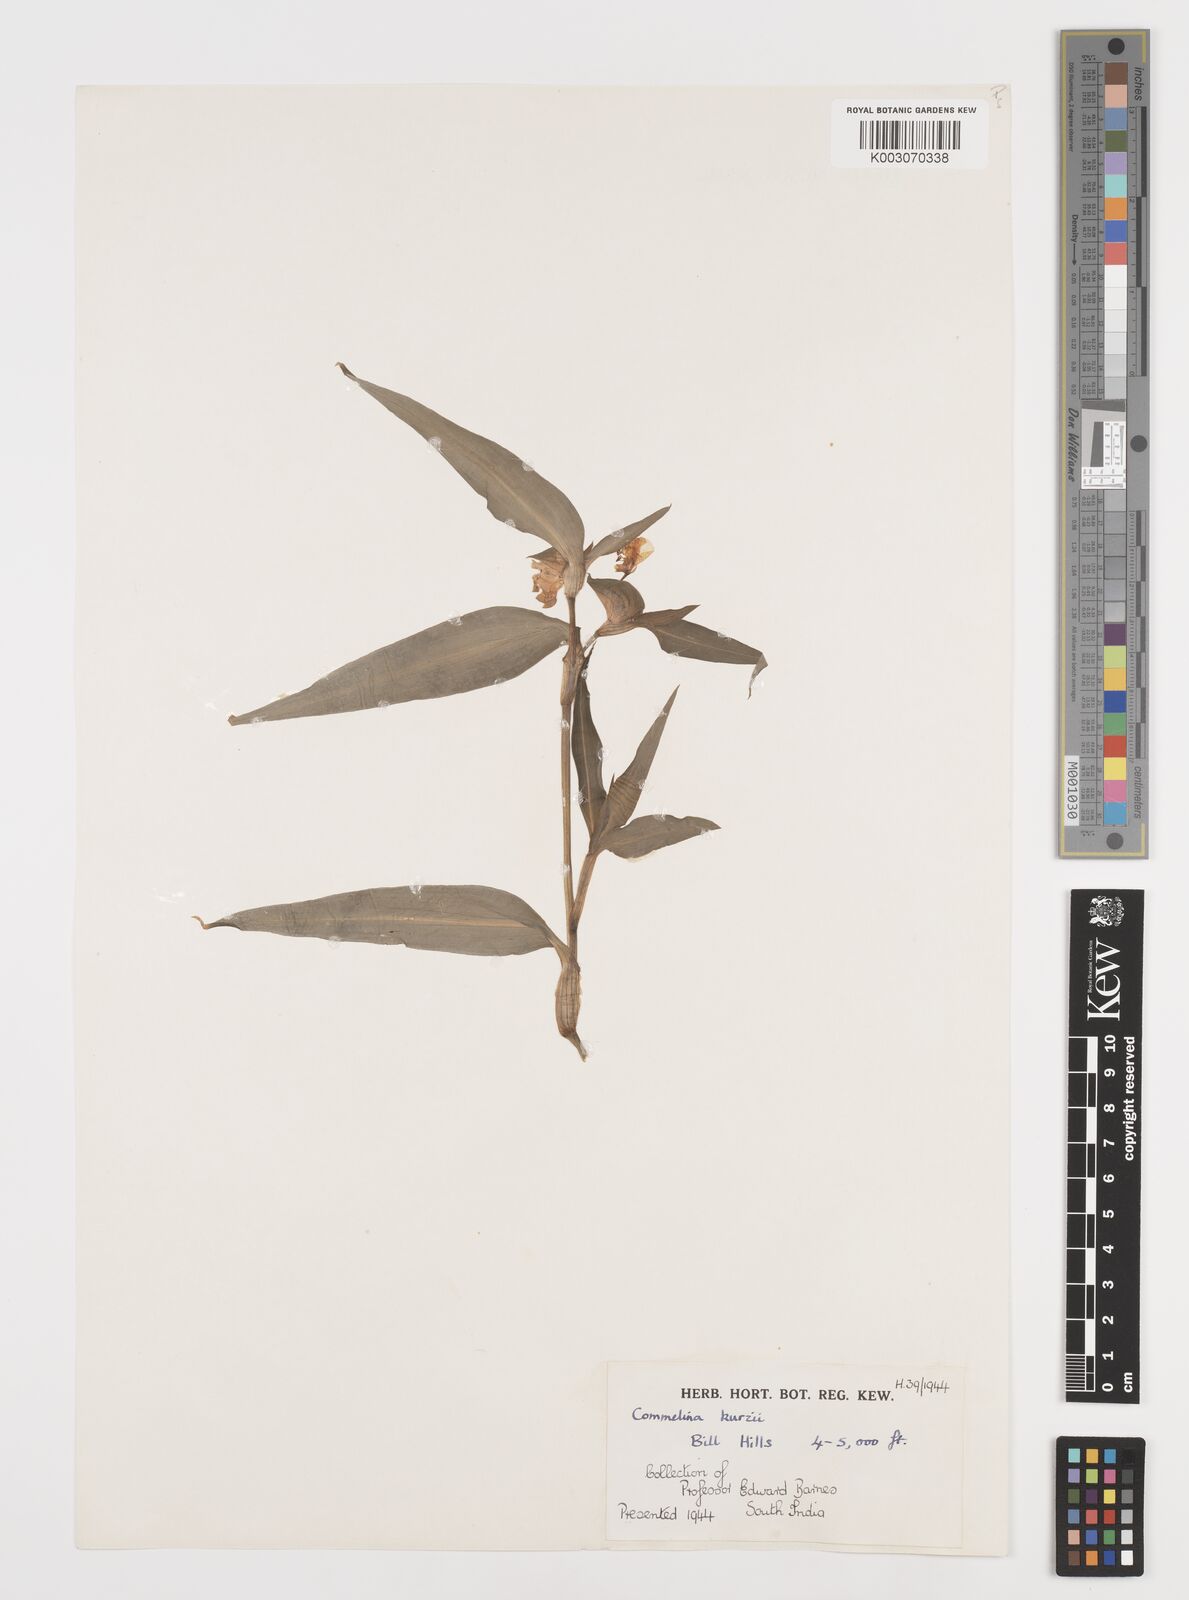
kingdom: Plantae
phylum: Tracheophyta
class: Liliopsida
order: Commelinales
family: Commelinaceae
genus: Commelina
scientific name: Commelina undulata
